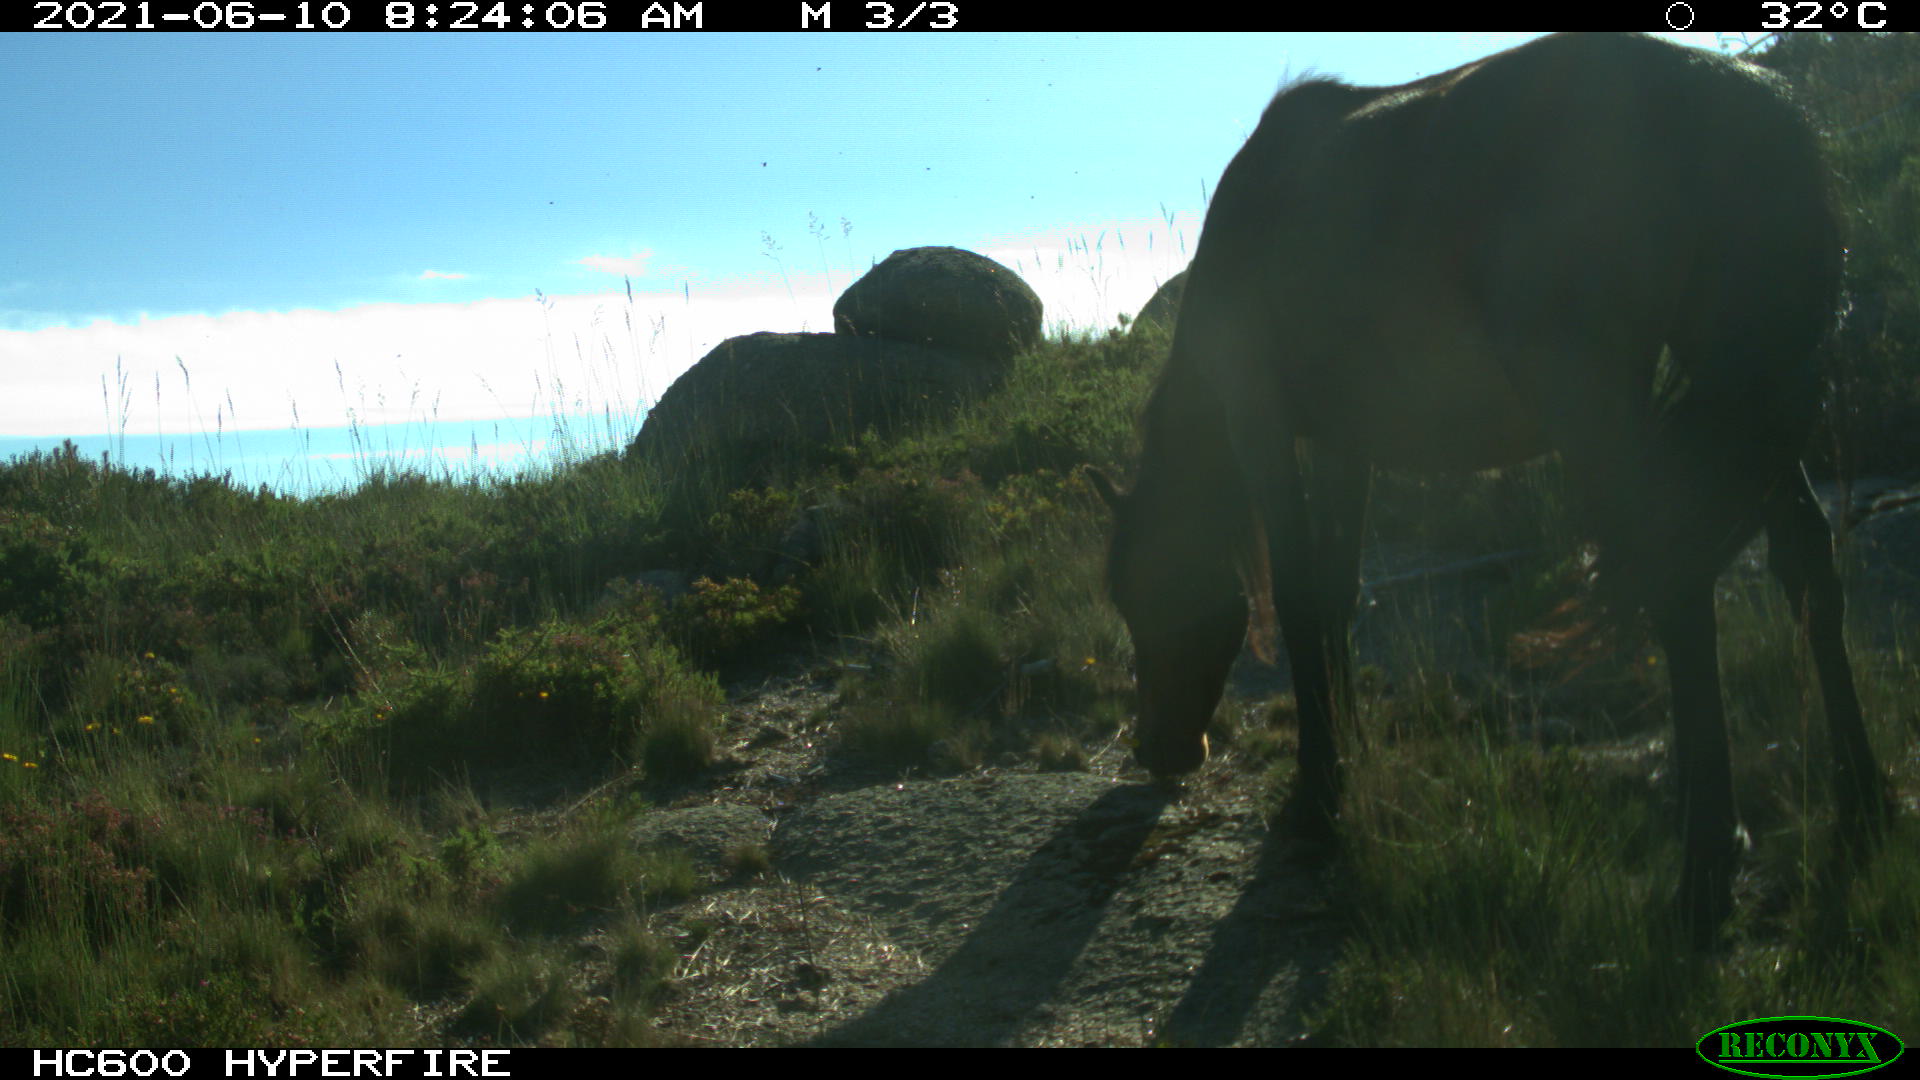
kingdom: Animalia
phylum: Chordata
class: Mammalia
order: Perissodactyla
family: Equidae
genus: Equus
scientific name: Equus caballus
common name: Horse
